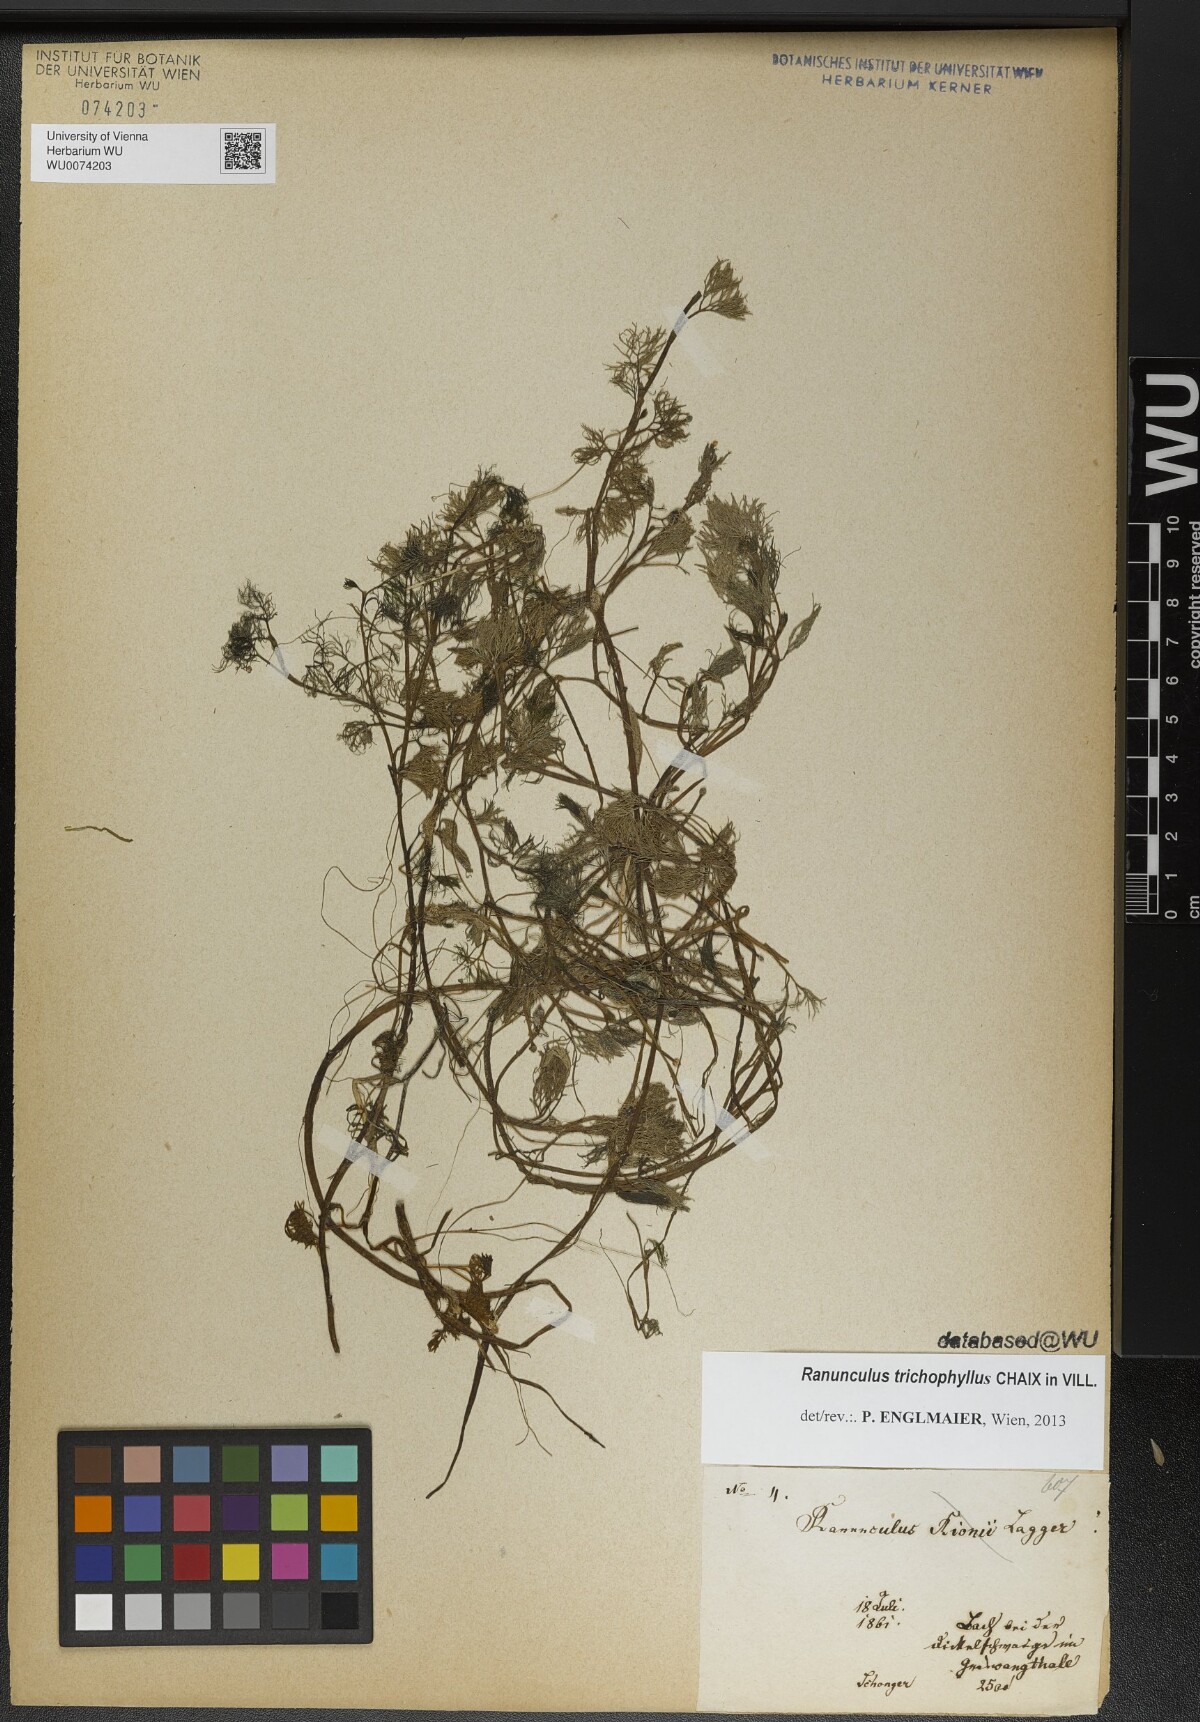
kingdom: Plantae
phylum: Tracheophyta
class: Magnoliopsida
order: Ranunculales
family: Ranunculaceae
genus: Ranunculus
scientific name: Ranunculus trichophyllus
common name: Thread-leaved water-crowfoot
